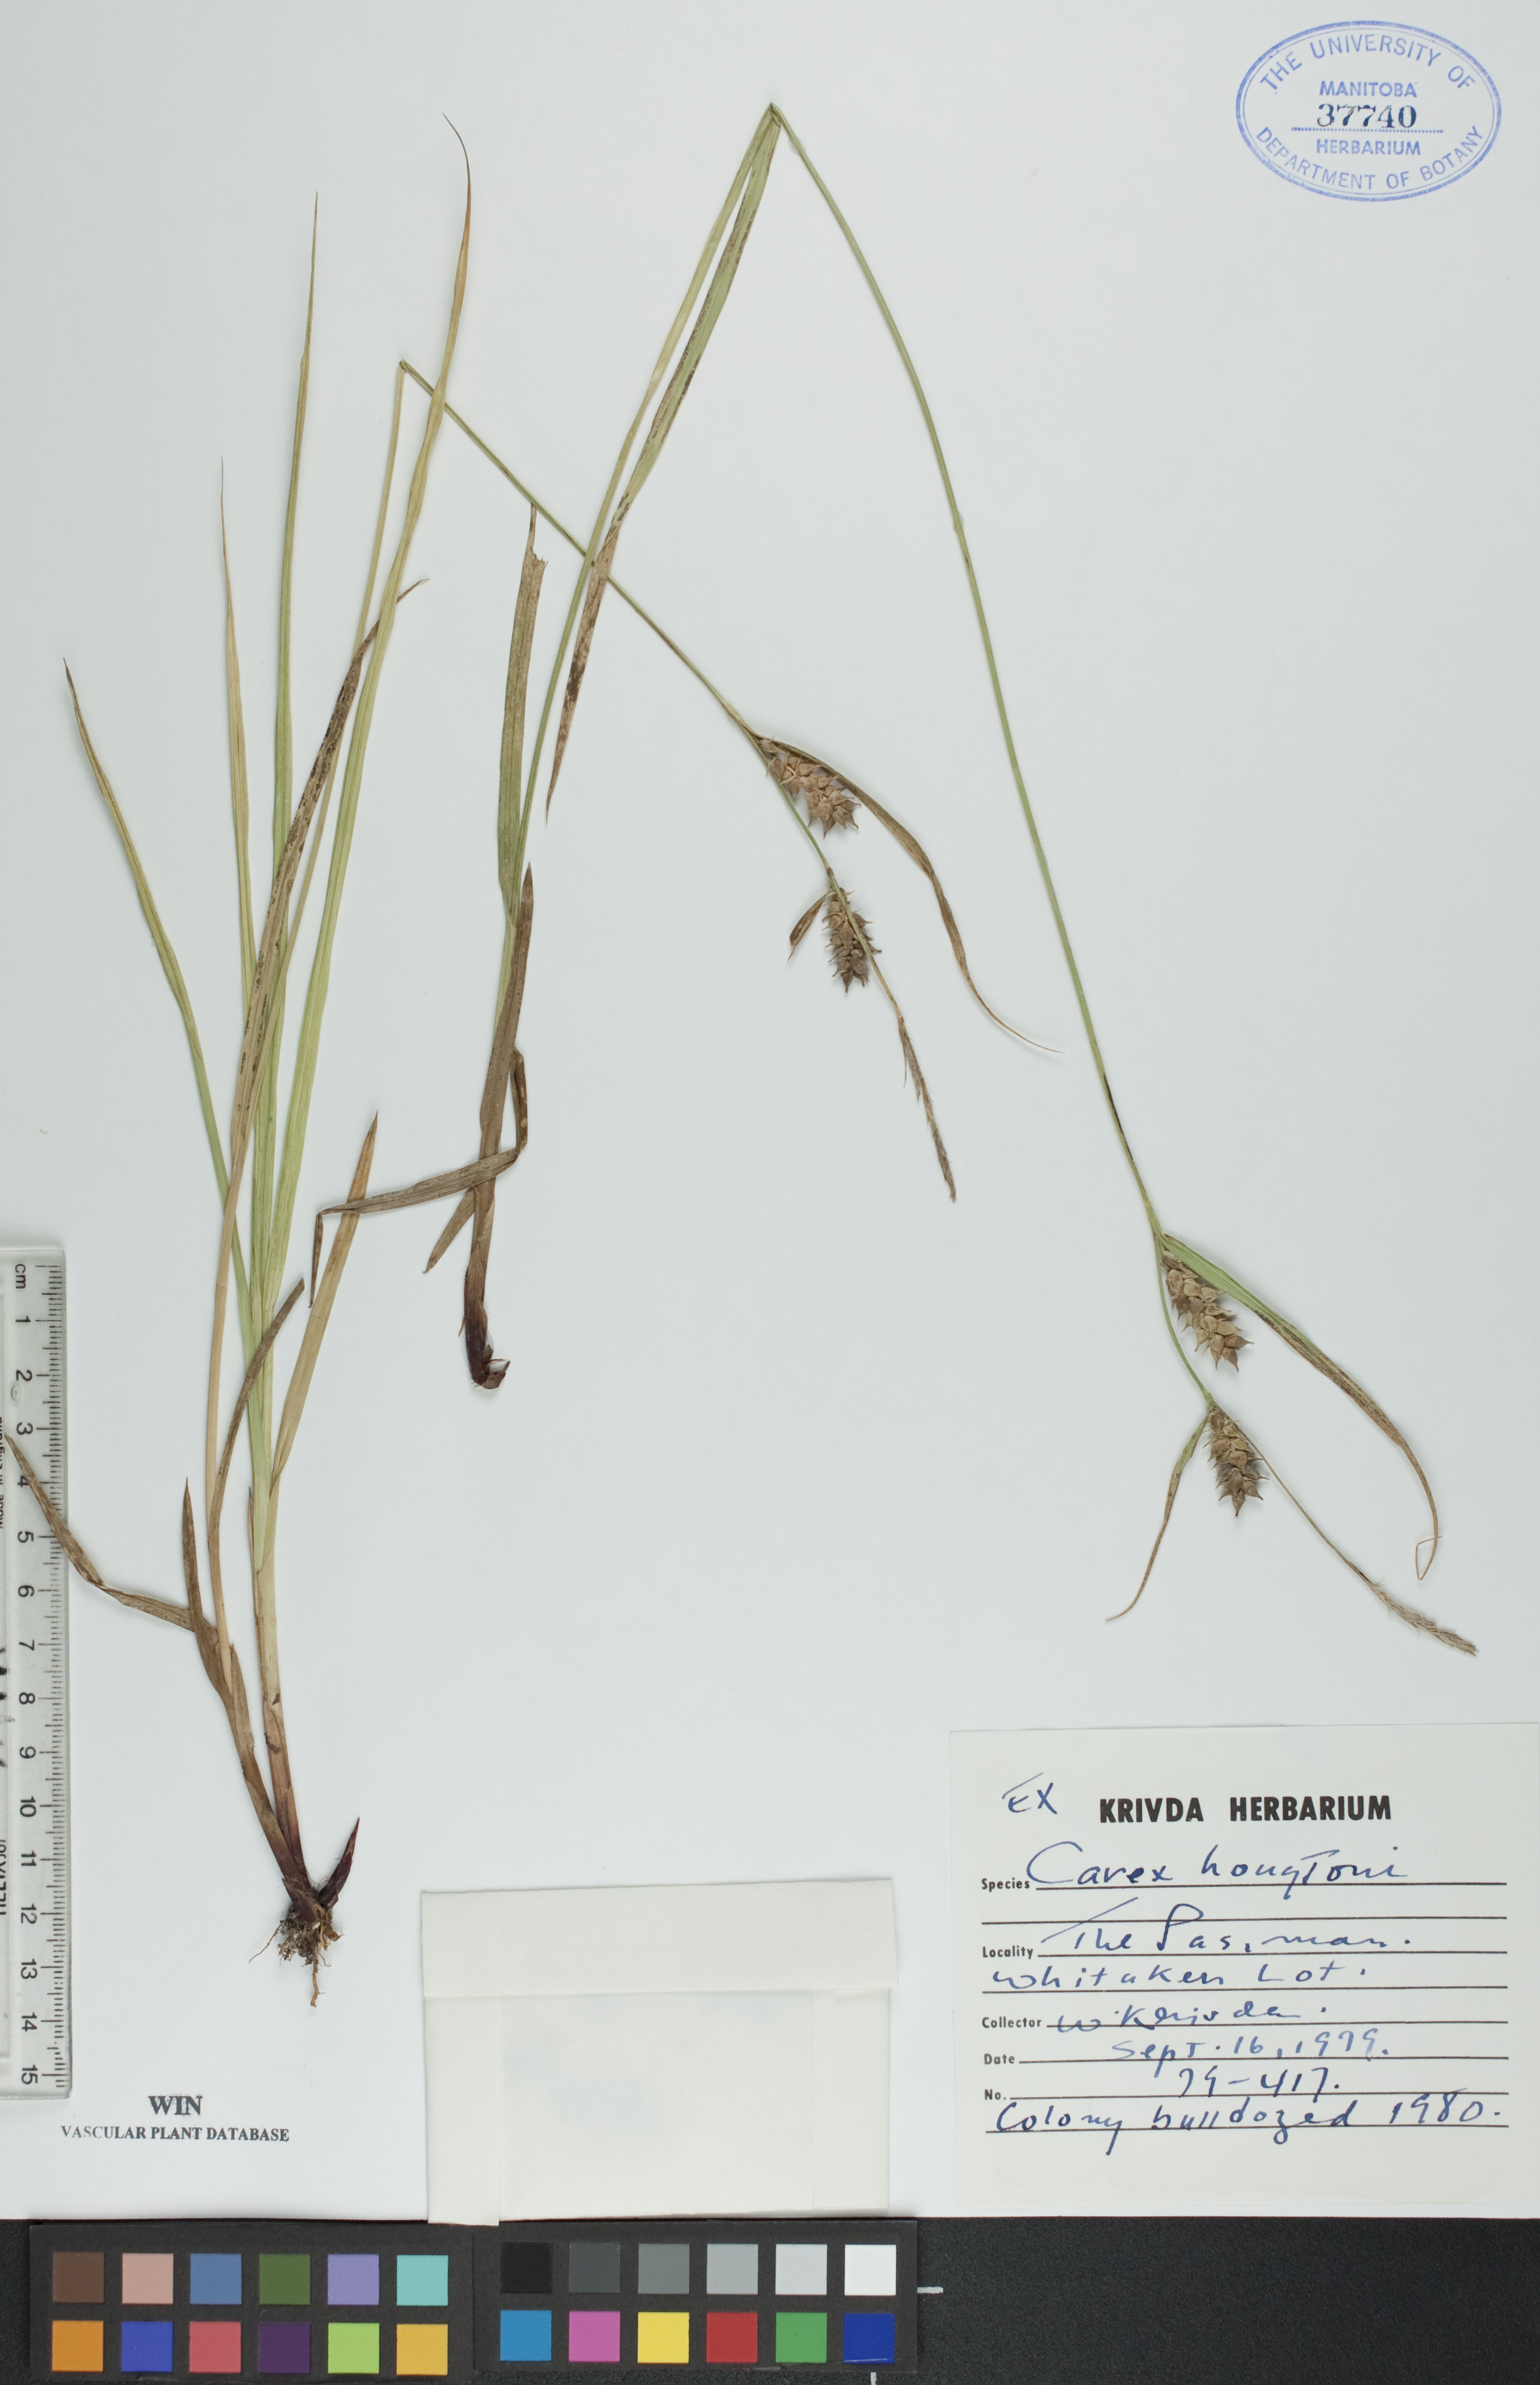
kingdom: Plantae
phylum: Tracheophyta
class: Liliopsida
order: Poales
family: Cyperaceae
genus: Carex
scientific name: Carex houghtoniana
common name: Houghton's sedge
